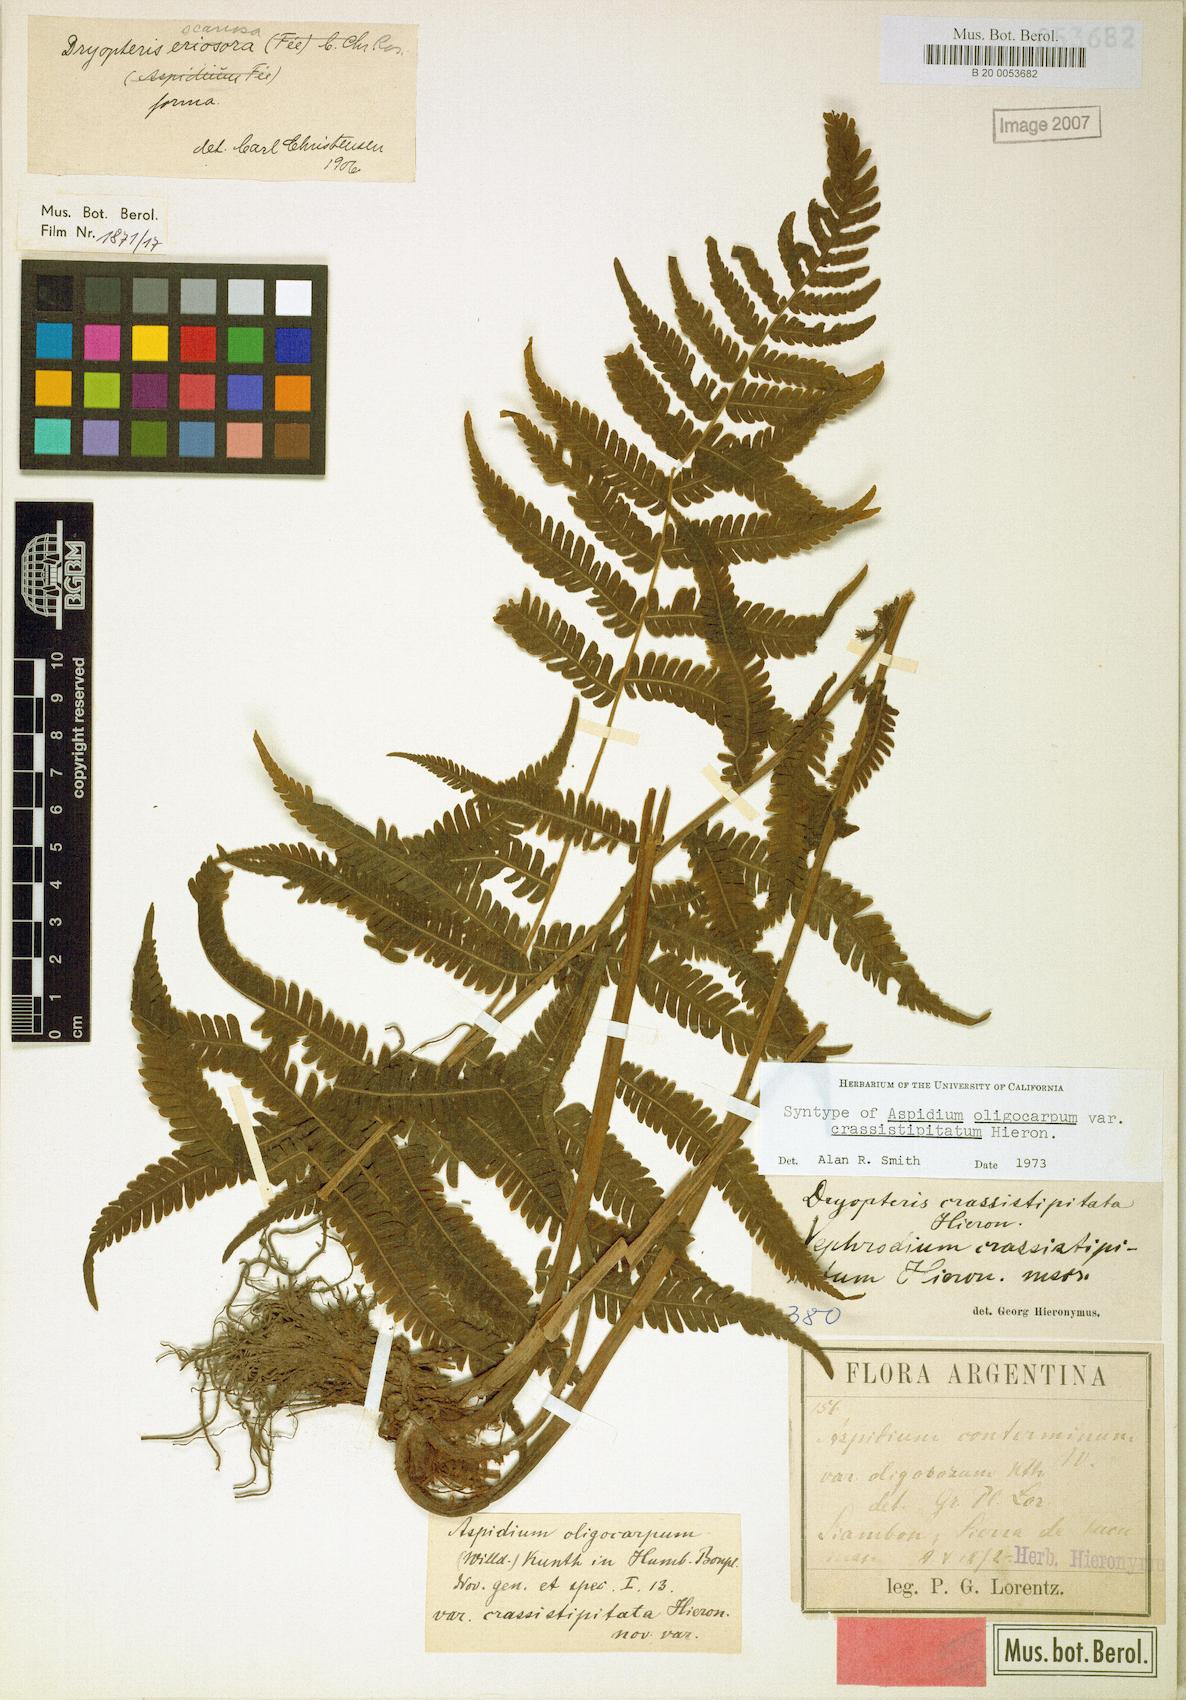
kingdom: Plantae
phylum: Tracheophyta
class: Polypodiopsida
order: Polypodiales
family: Thelypteridaceae
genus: Amauropelta
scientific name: Amauropelta oligocarpa
